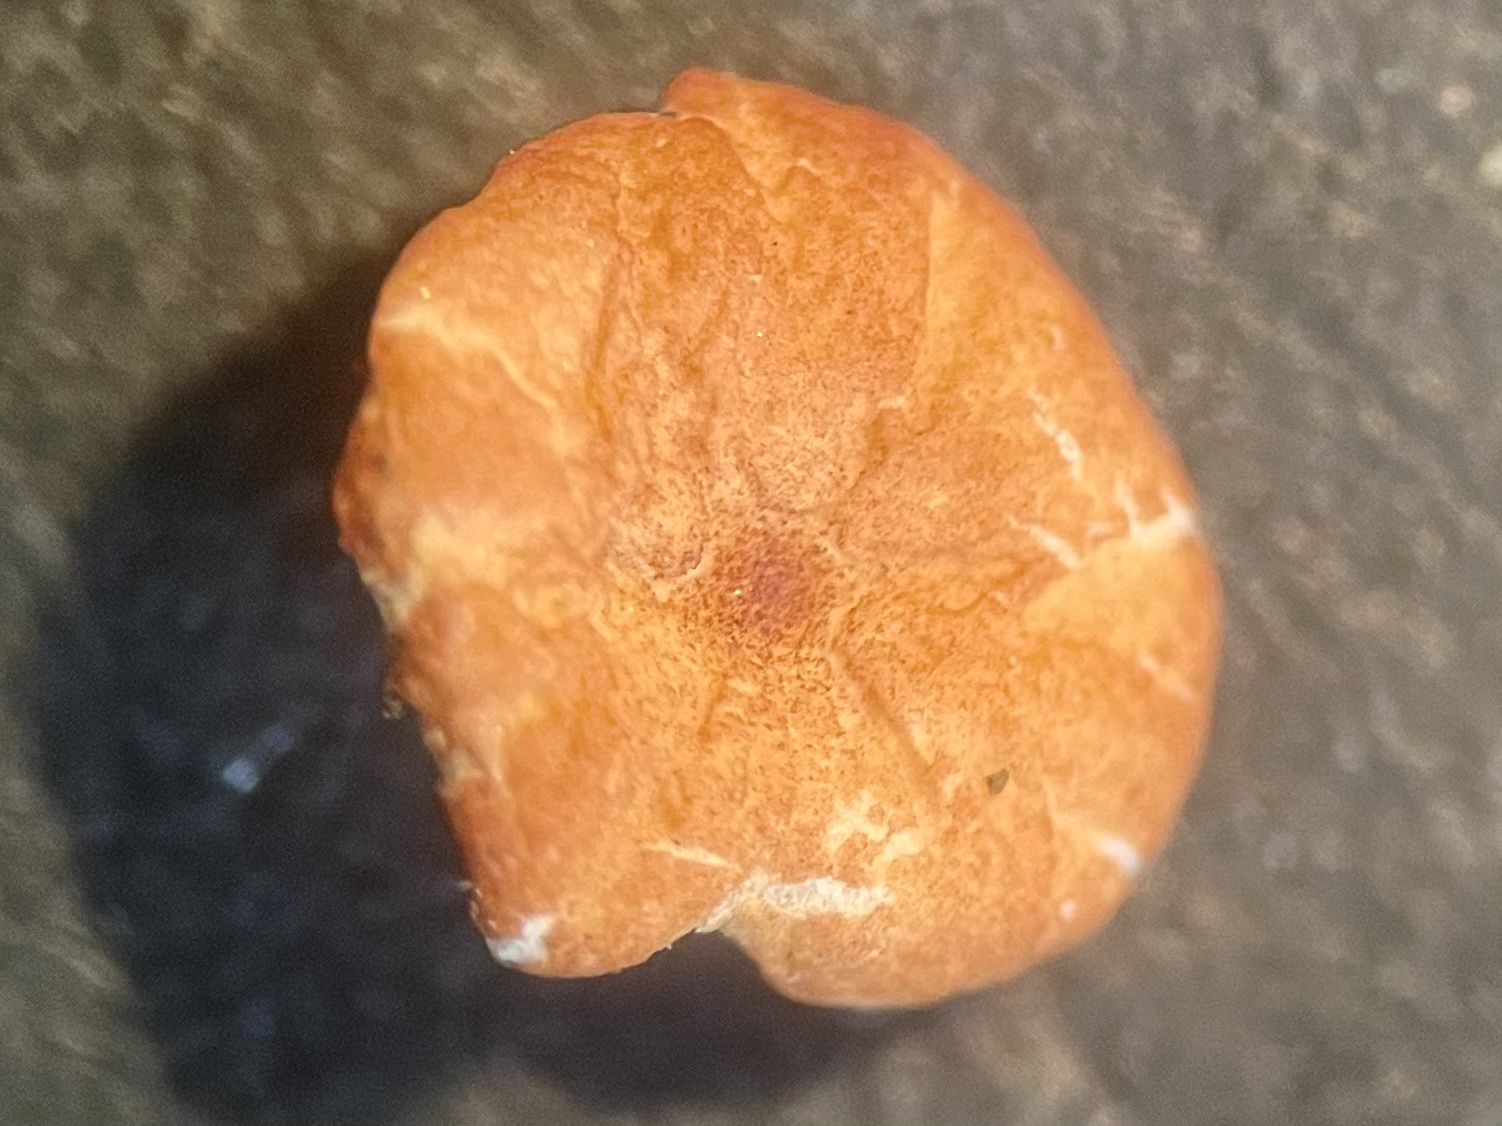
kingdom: Fungi
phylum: Basidiomycota
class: Agaricomycetes
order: Agaricales
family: Marasmiaceae
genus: Marasmius
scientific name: Marasmius curreyi
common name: teglrød bruskhat
